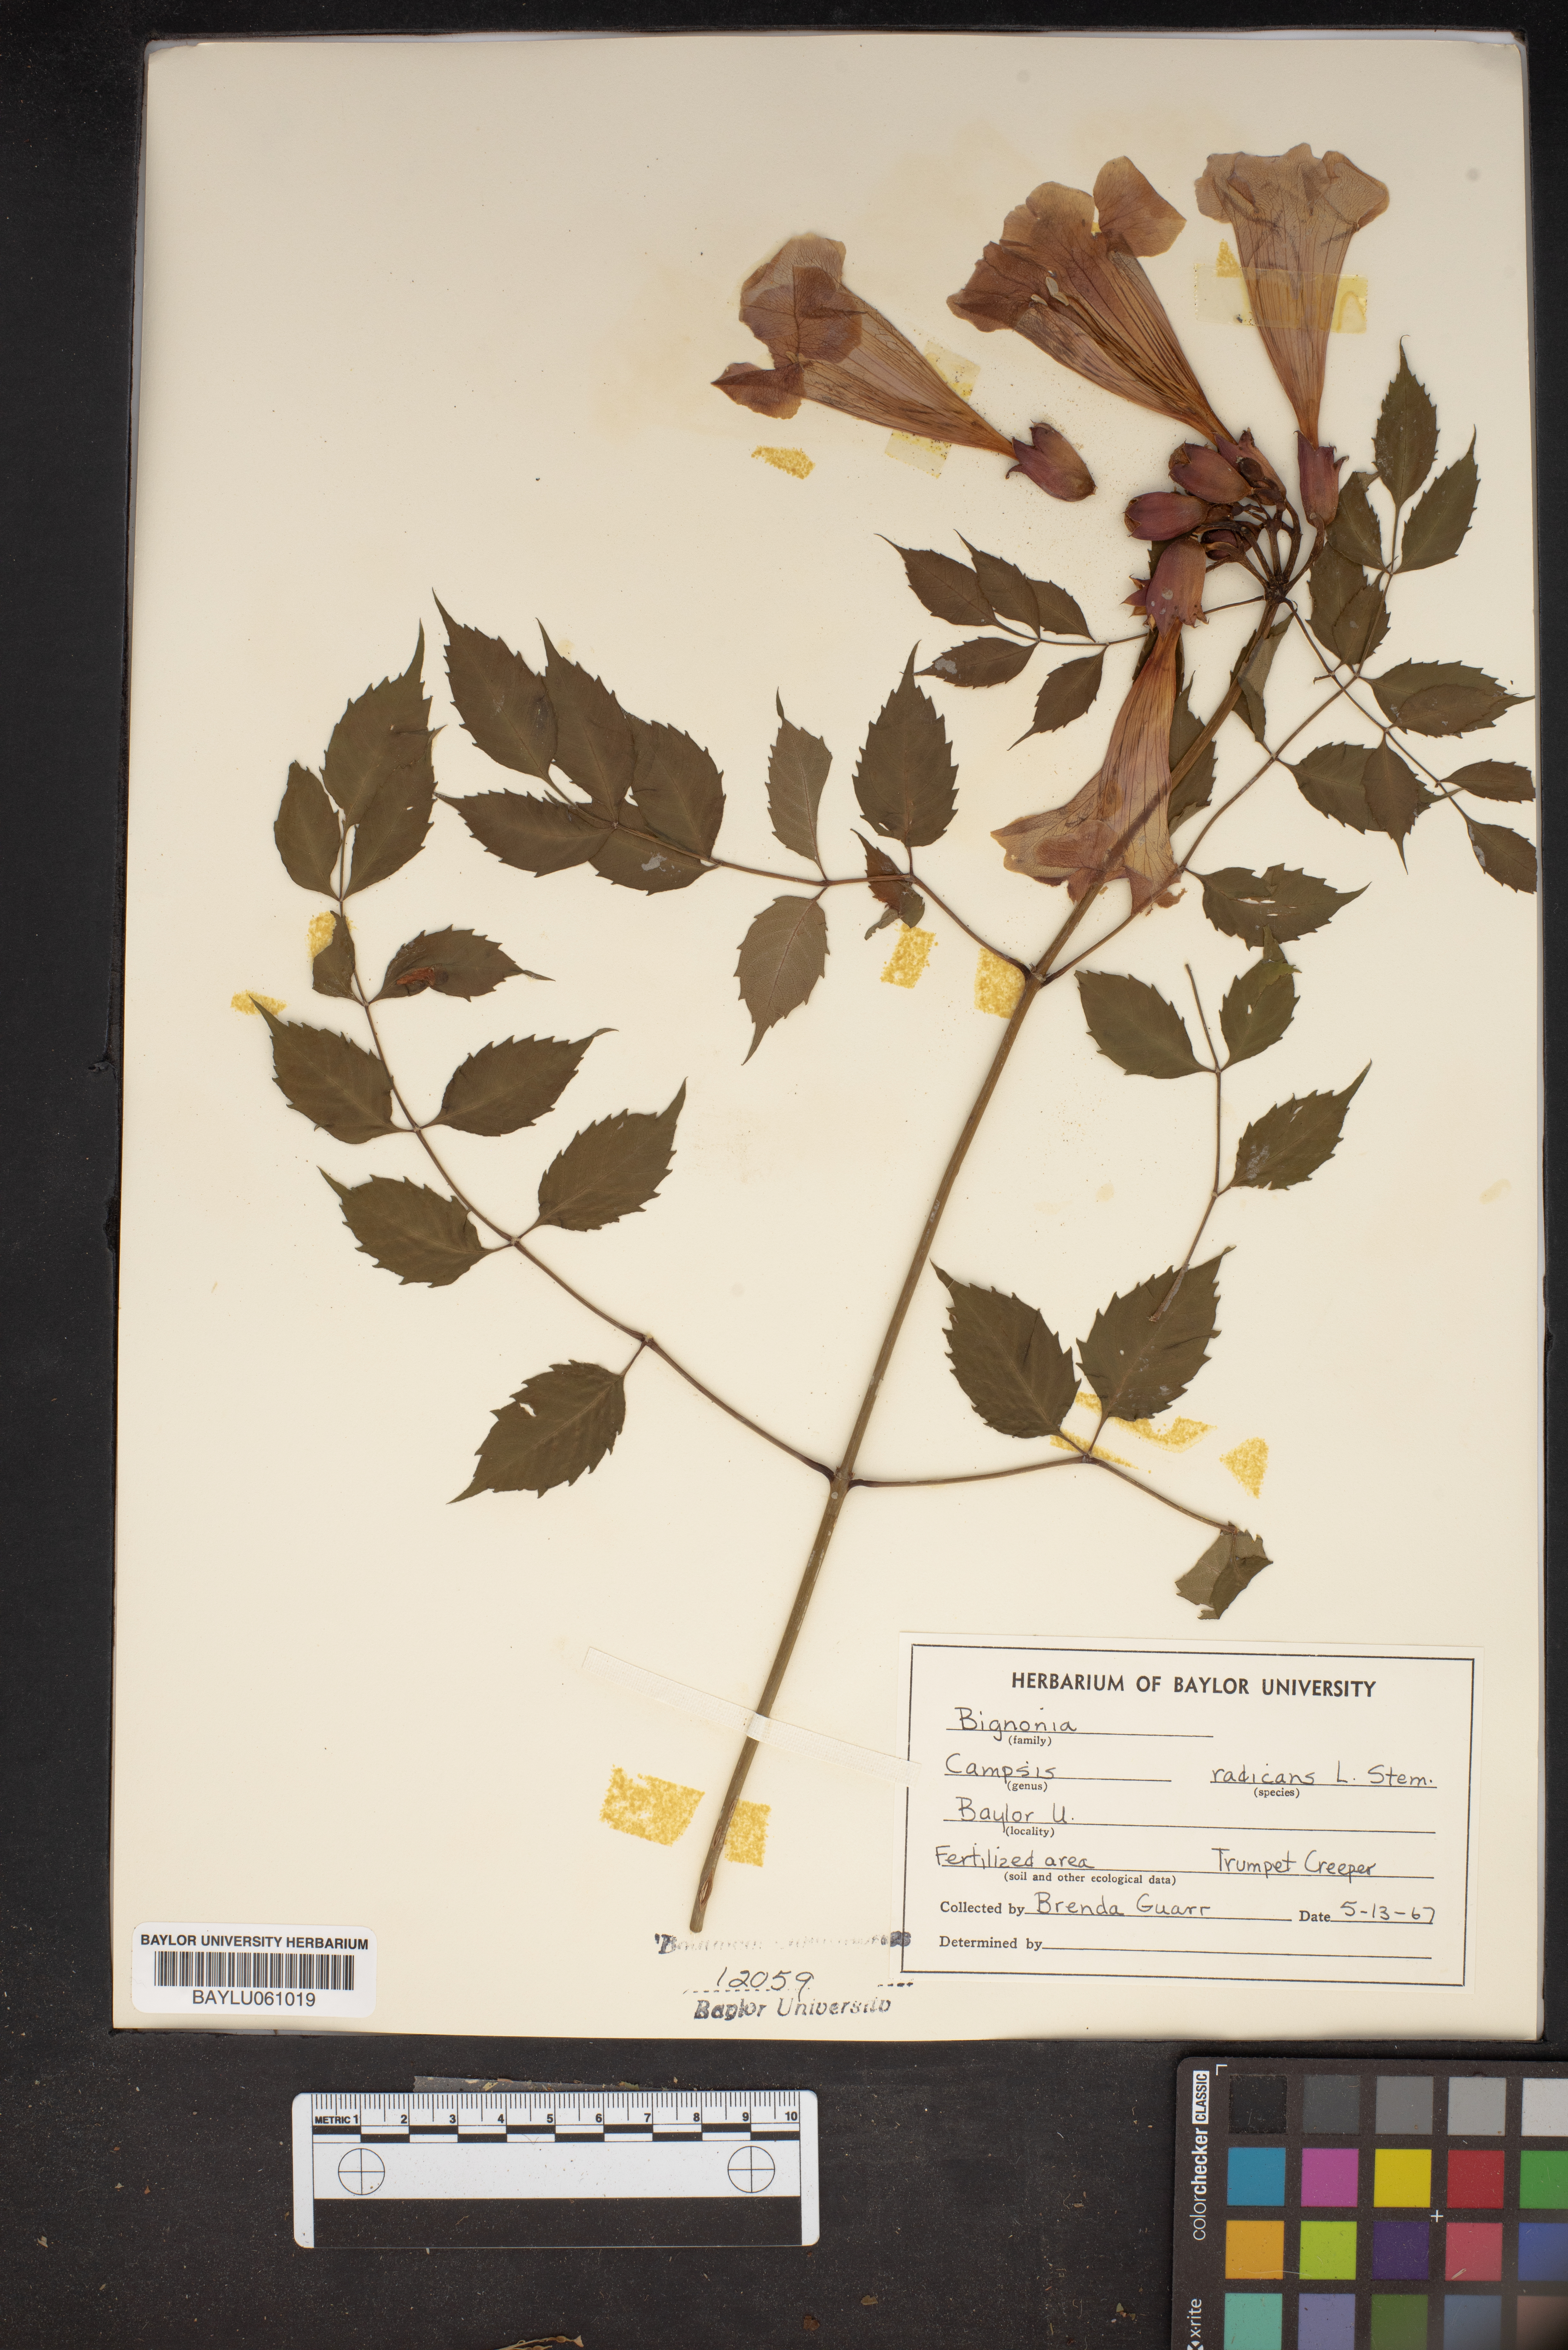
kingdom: Plantae
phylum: Tracheophyta
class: Magnoliopsida
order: Lamiales
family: Bignoniaceae
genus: Campsis
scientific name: Campsis radicans
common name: Trumpet-creeper
